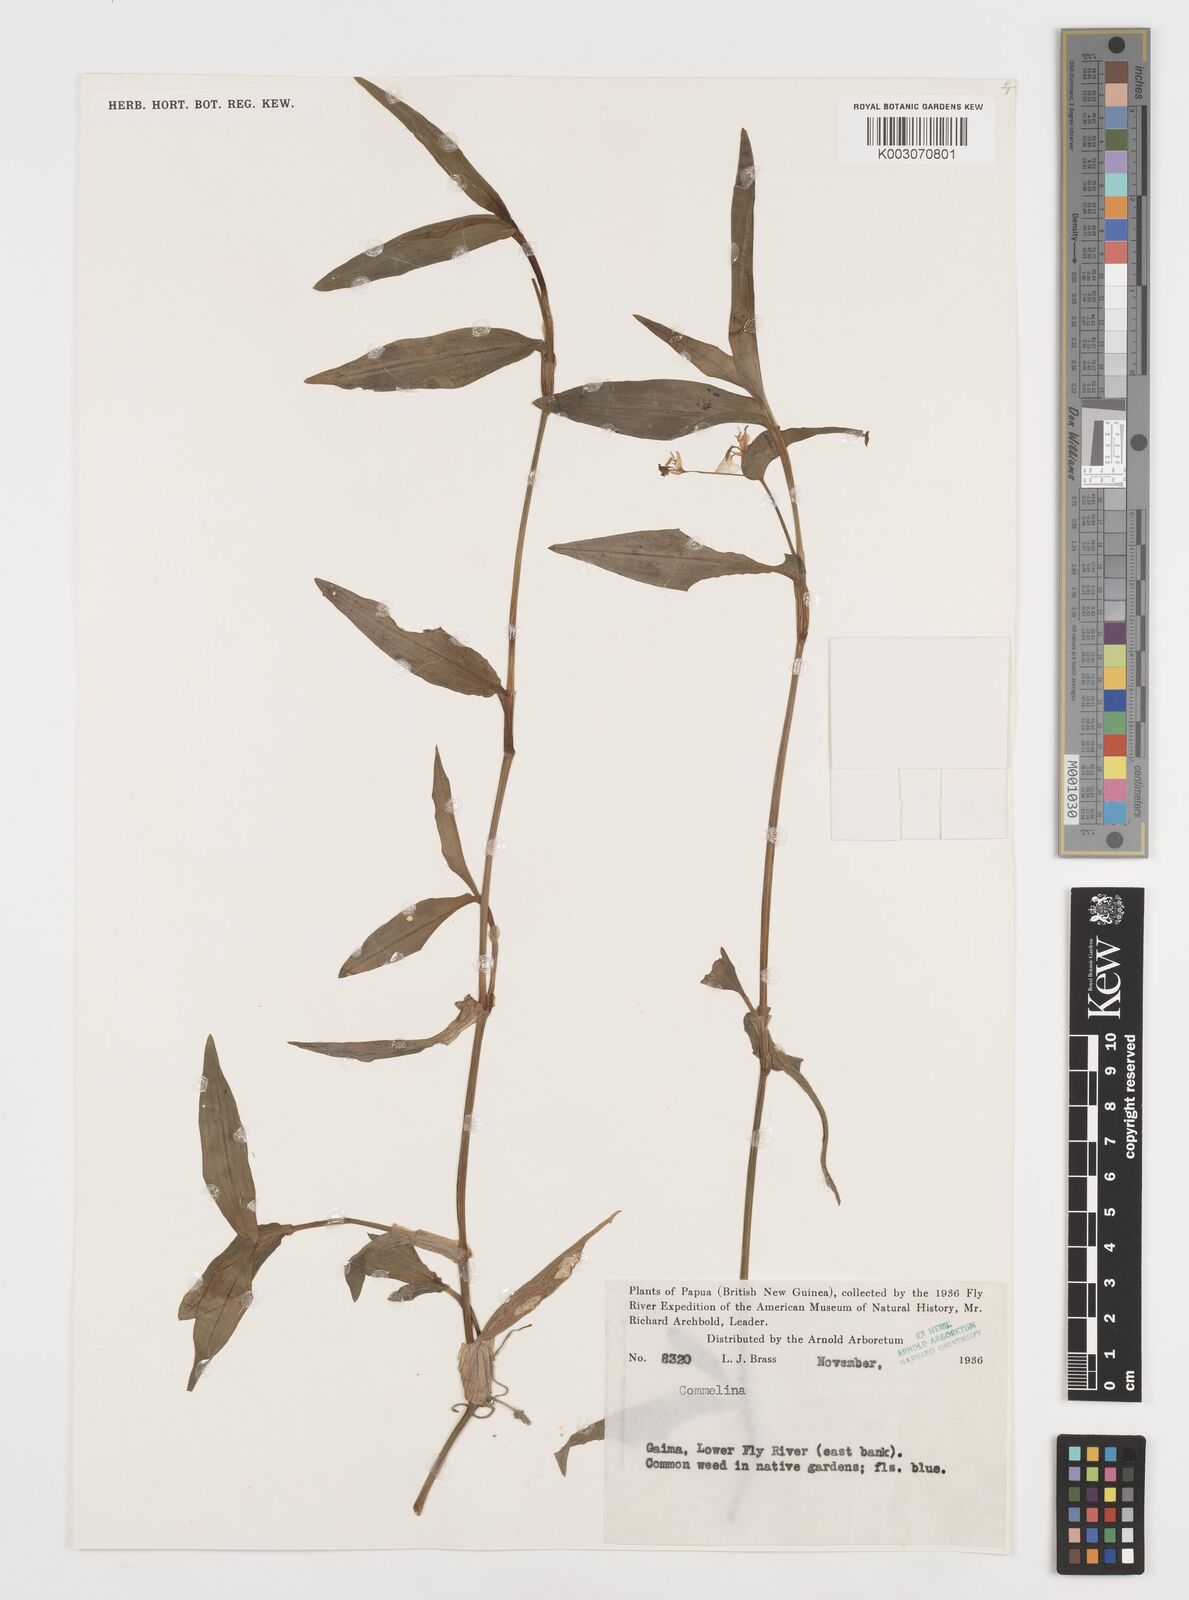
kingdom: Plantae
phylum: Tracheophyta
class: Liliopsida
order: Commelinales
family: Commelinaceae
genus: Commelina
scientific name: Commelina
